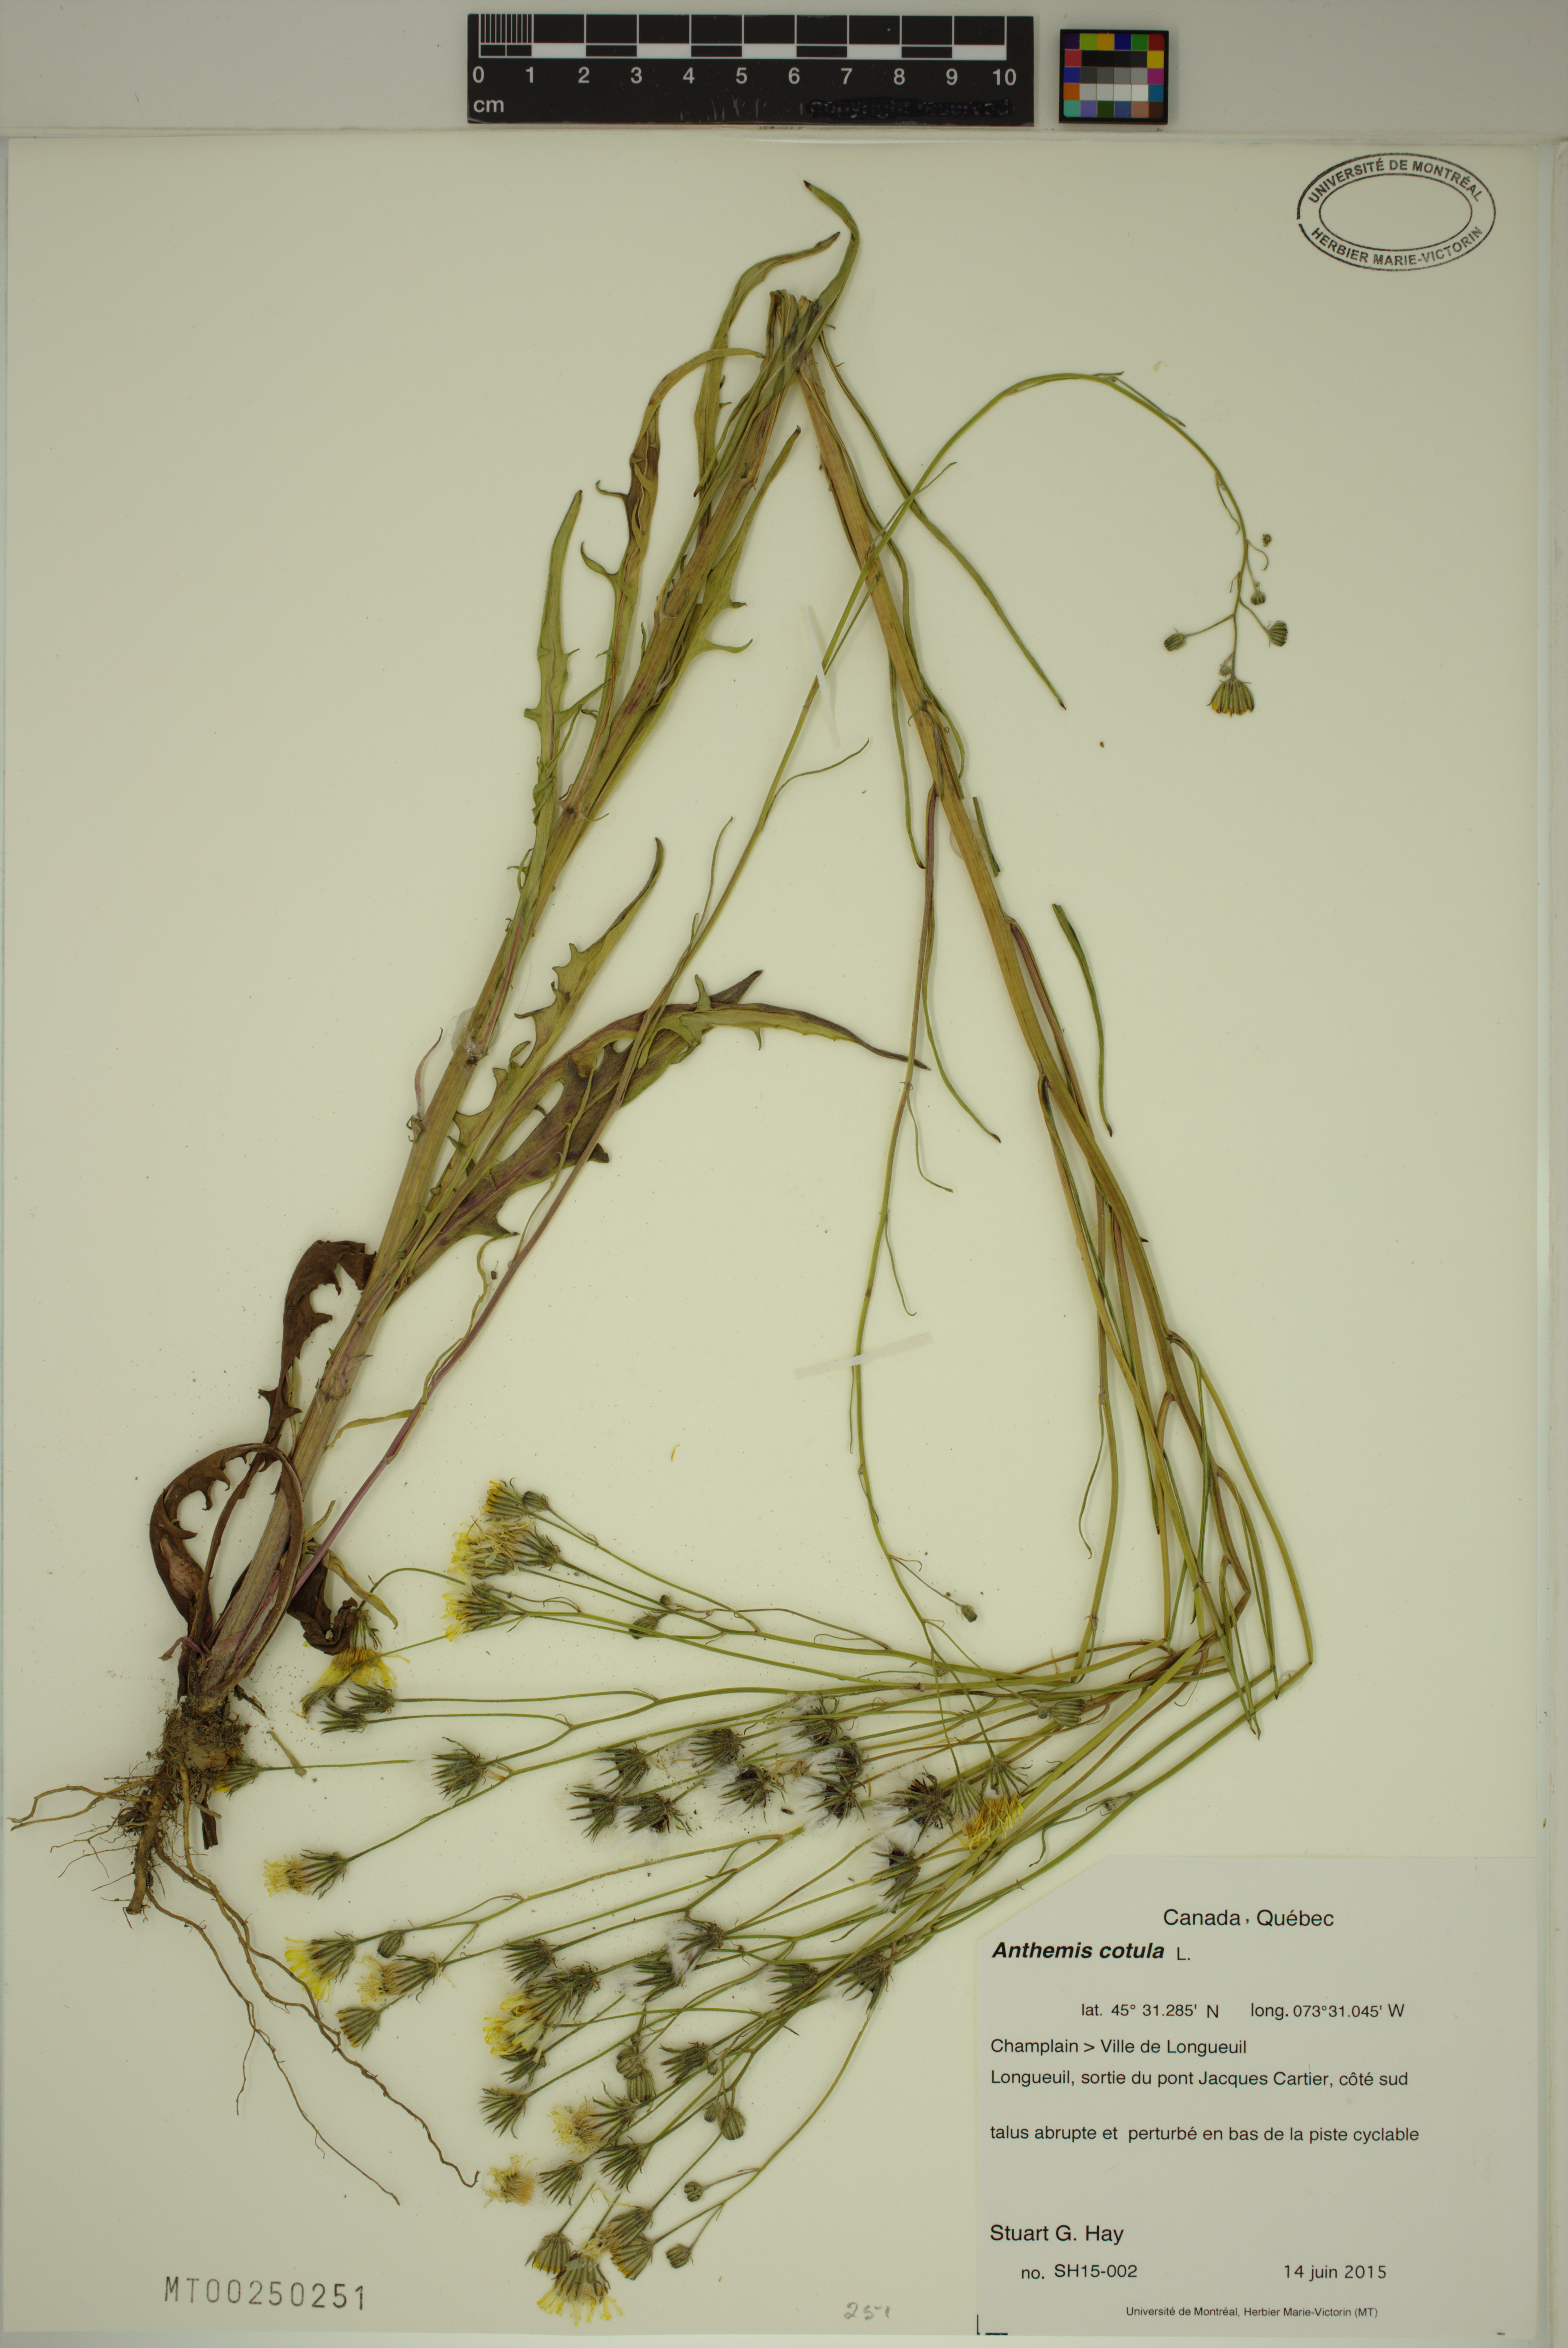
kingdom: Plantae
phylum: Tracheophyta
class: Magnoliopsida
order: Asterales
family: Asteraceae
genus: Anthemis
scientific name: Anthemis cotula
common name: Stinking chamomile
